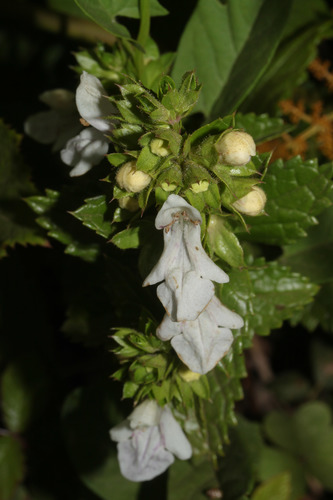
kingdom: Plantae
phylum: Tracheophyta
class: Magnoliopsida
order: Lamiales
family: Lamiaceae
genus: Prasium
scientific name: Prasium majus
